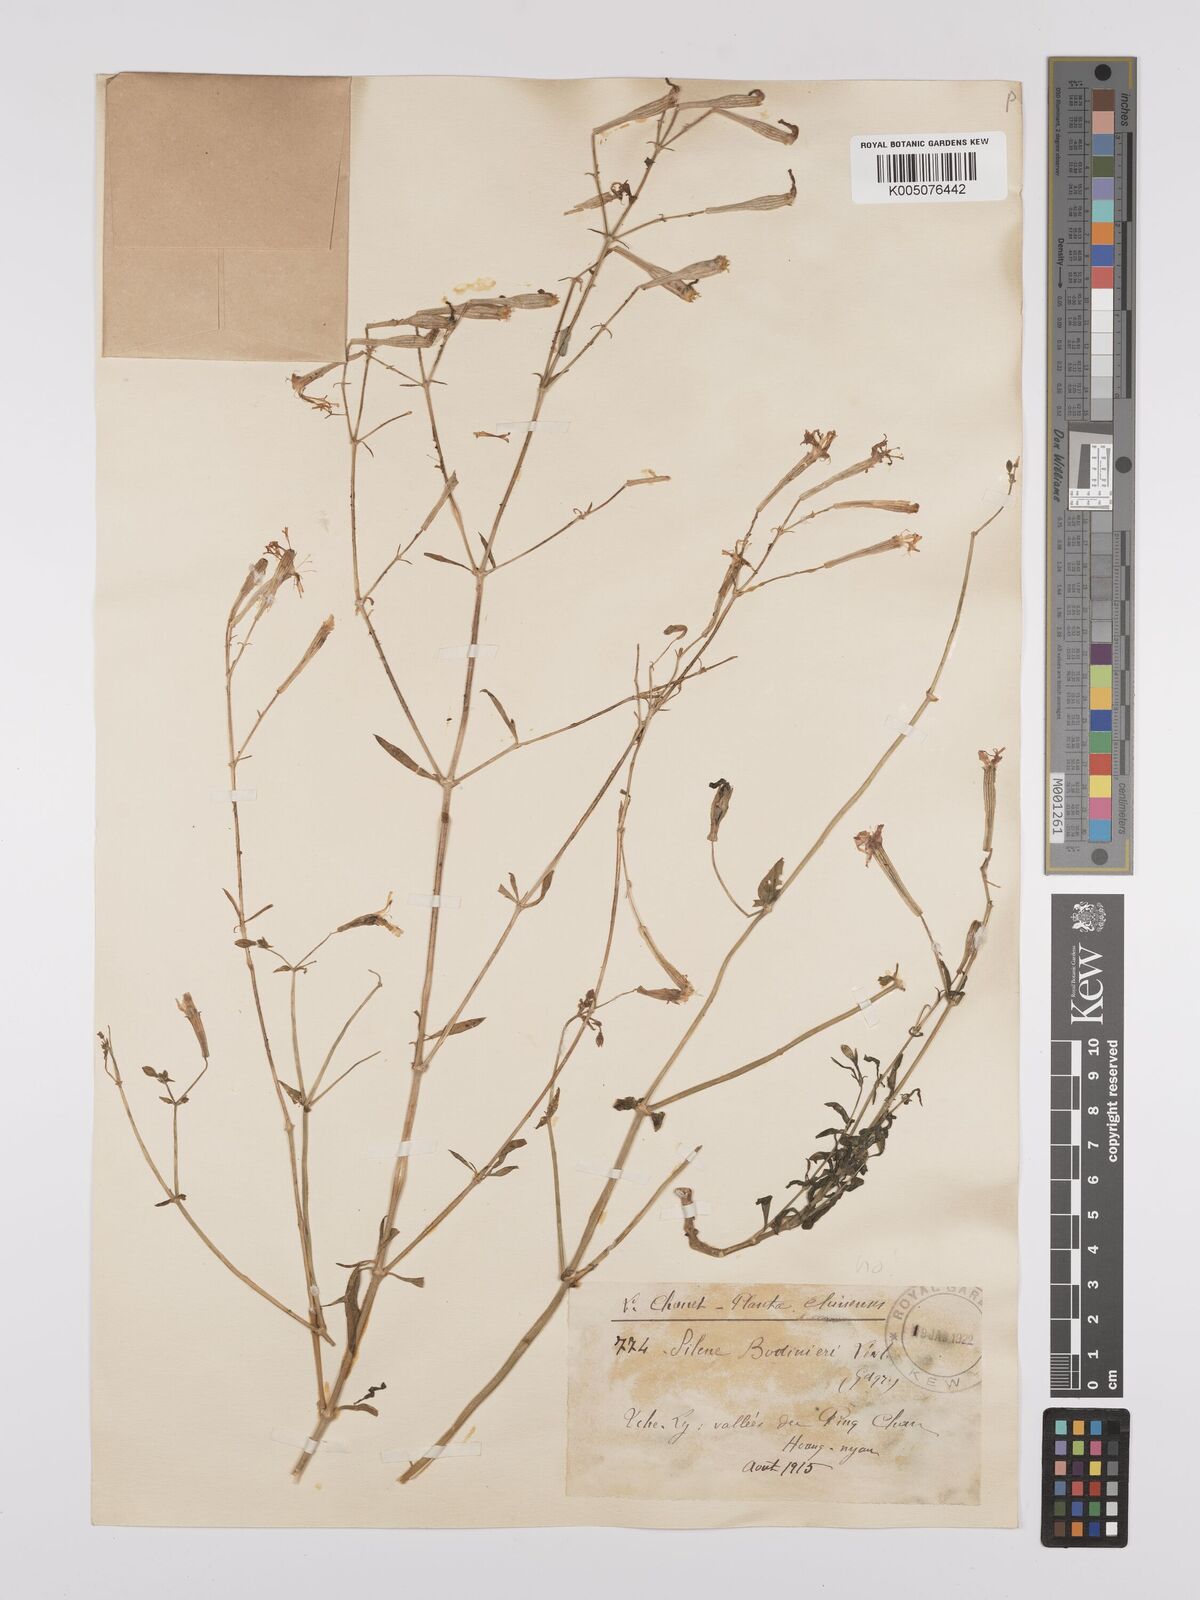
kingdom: Plantae
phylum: Tracheophyta
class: Magnoliopsida
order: Caryophyllales
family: Caryophyllaceae
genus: Silene
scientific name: Silene
